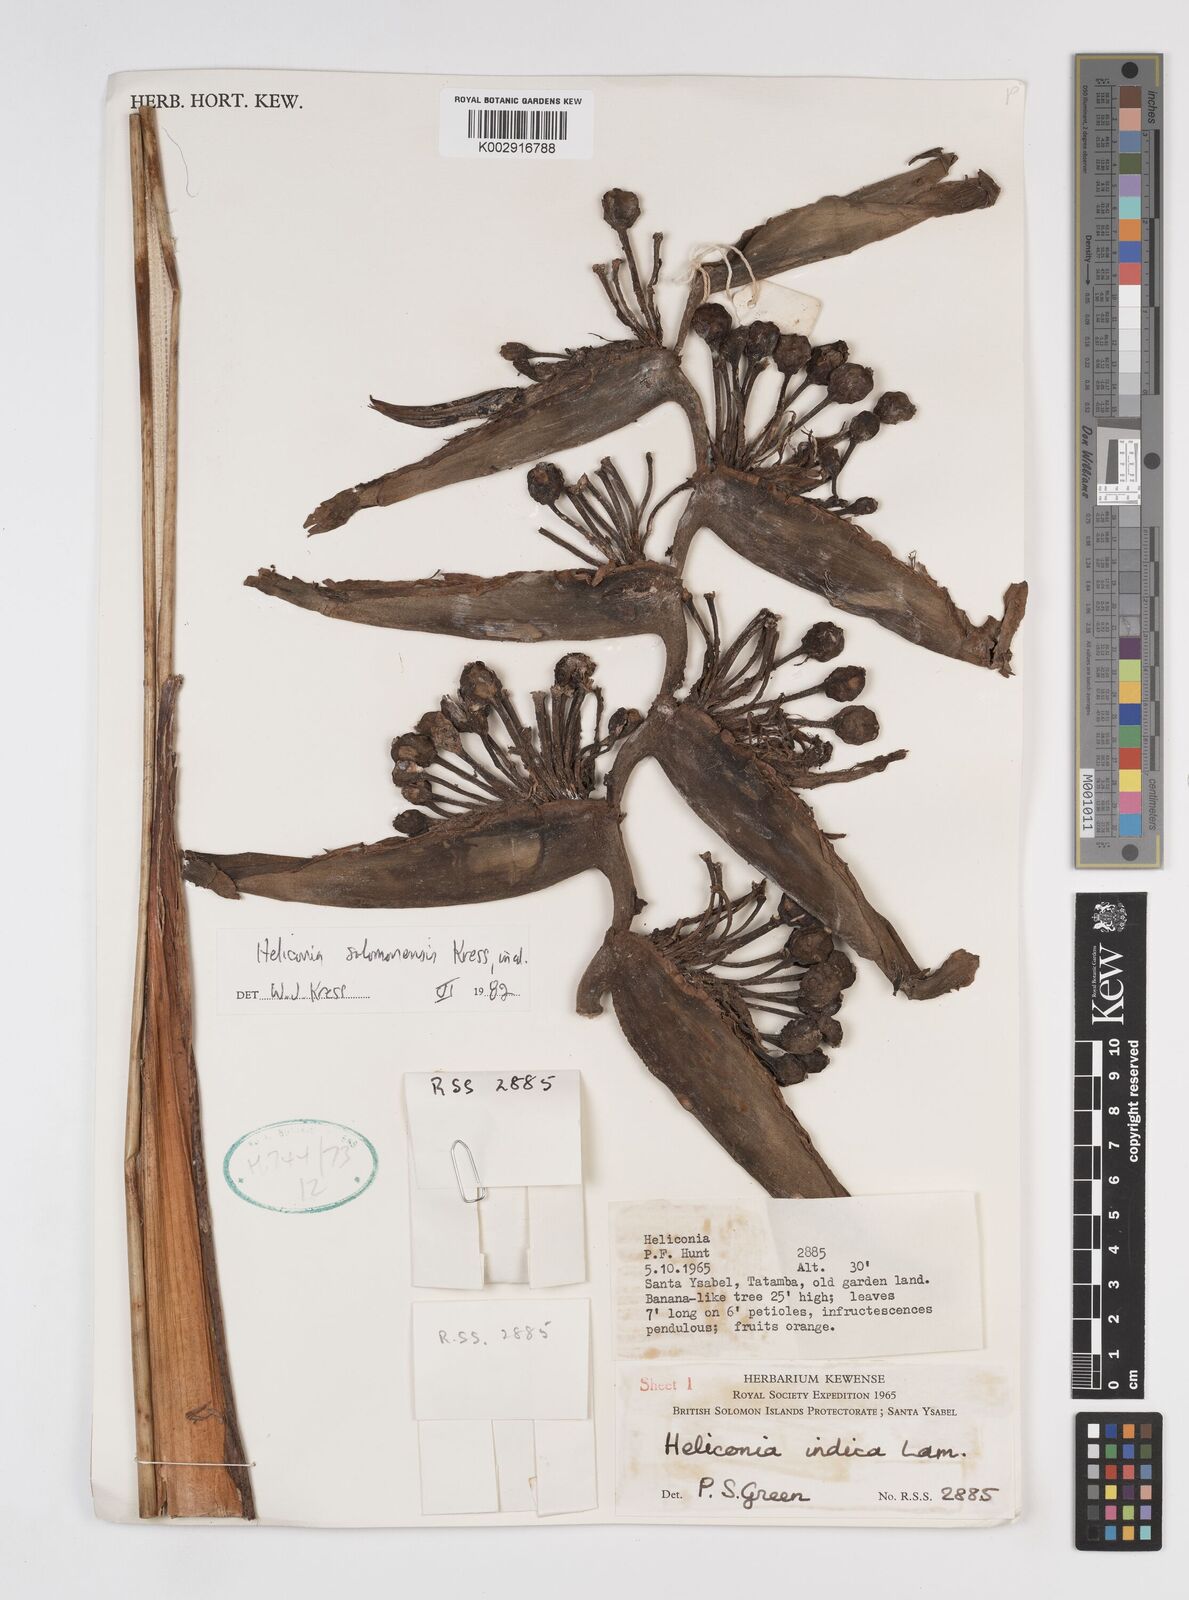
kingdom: Plantae
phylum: Tracheophyta
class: Liliopsida
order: Zingiberales
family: Heliconiaceae
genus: Heliconia
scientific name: Heliconia solomonensis
